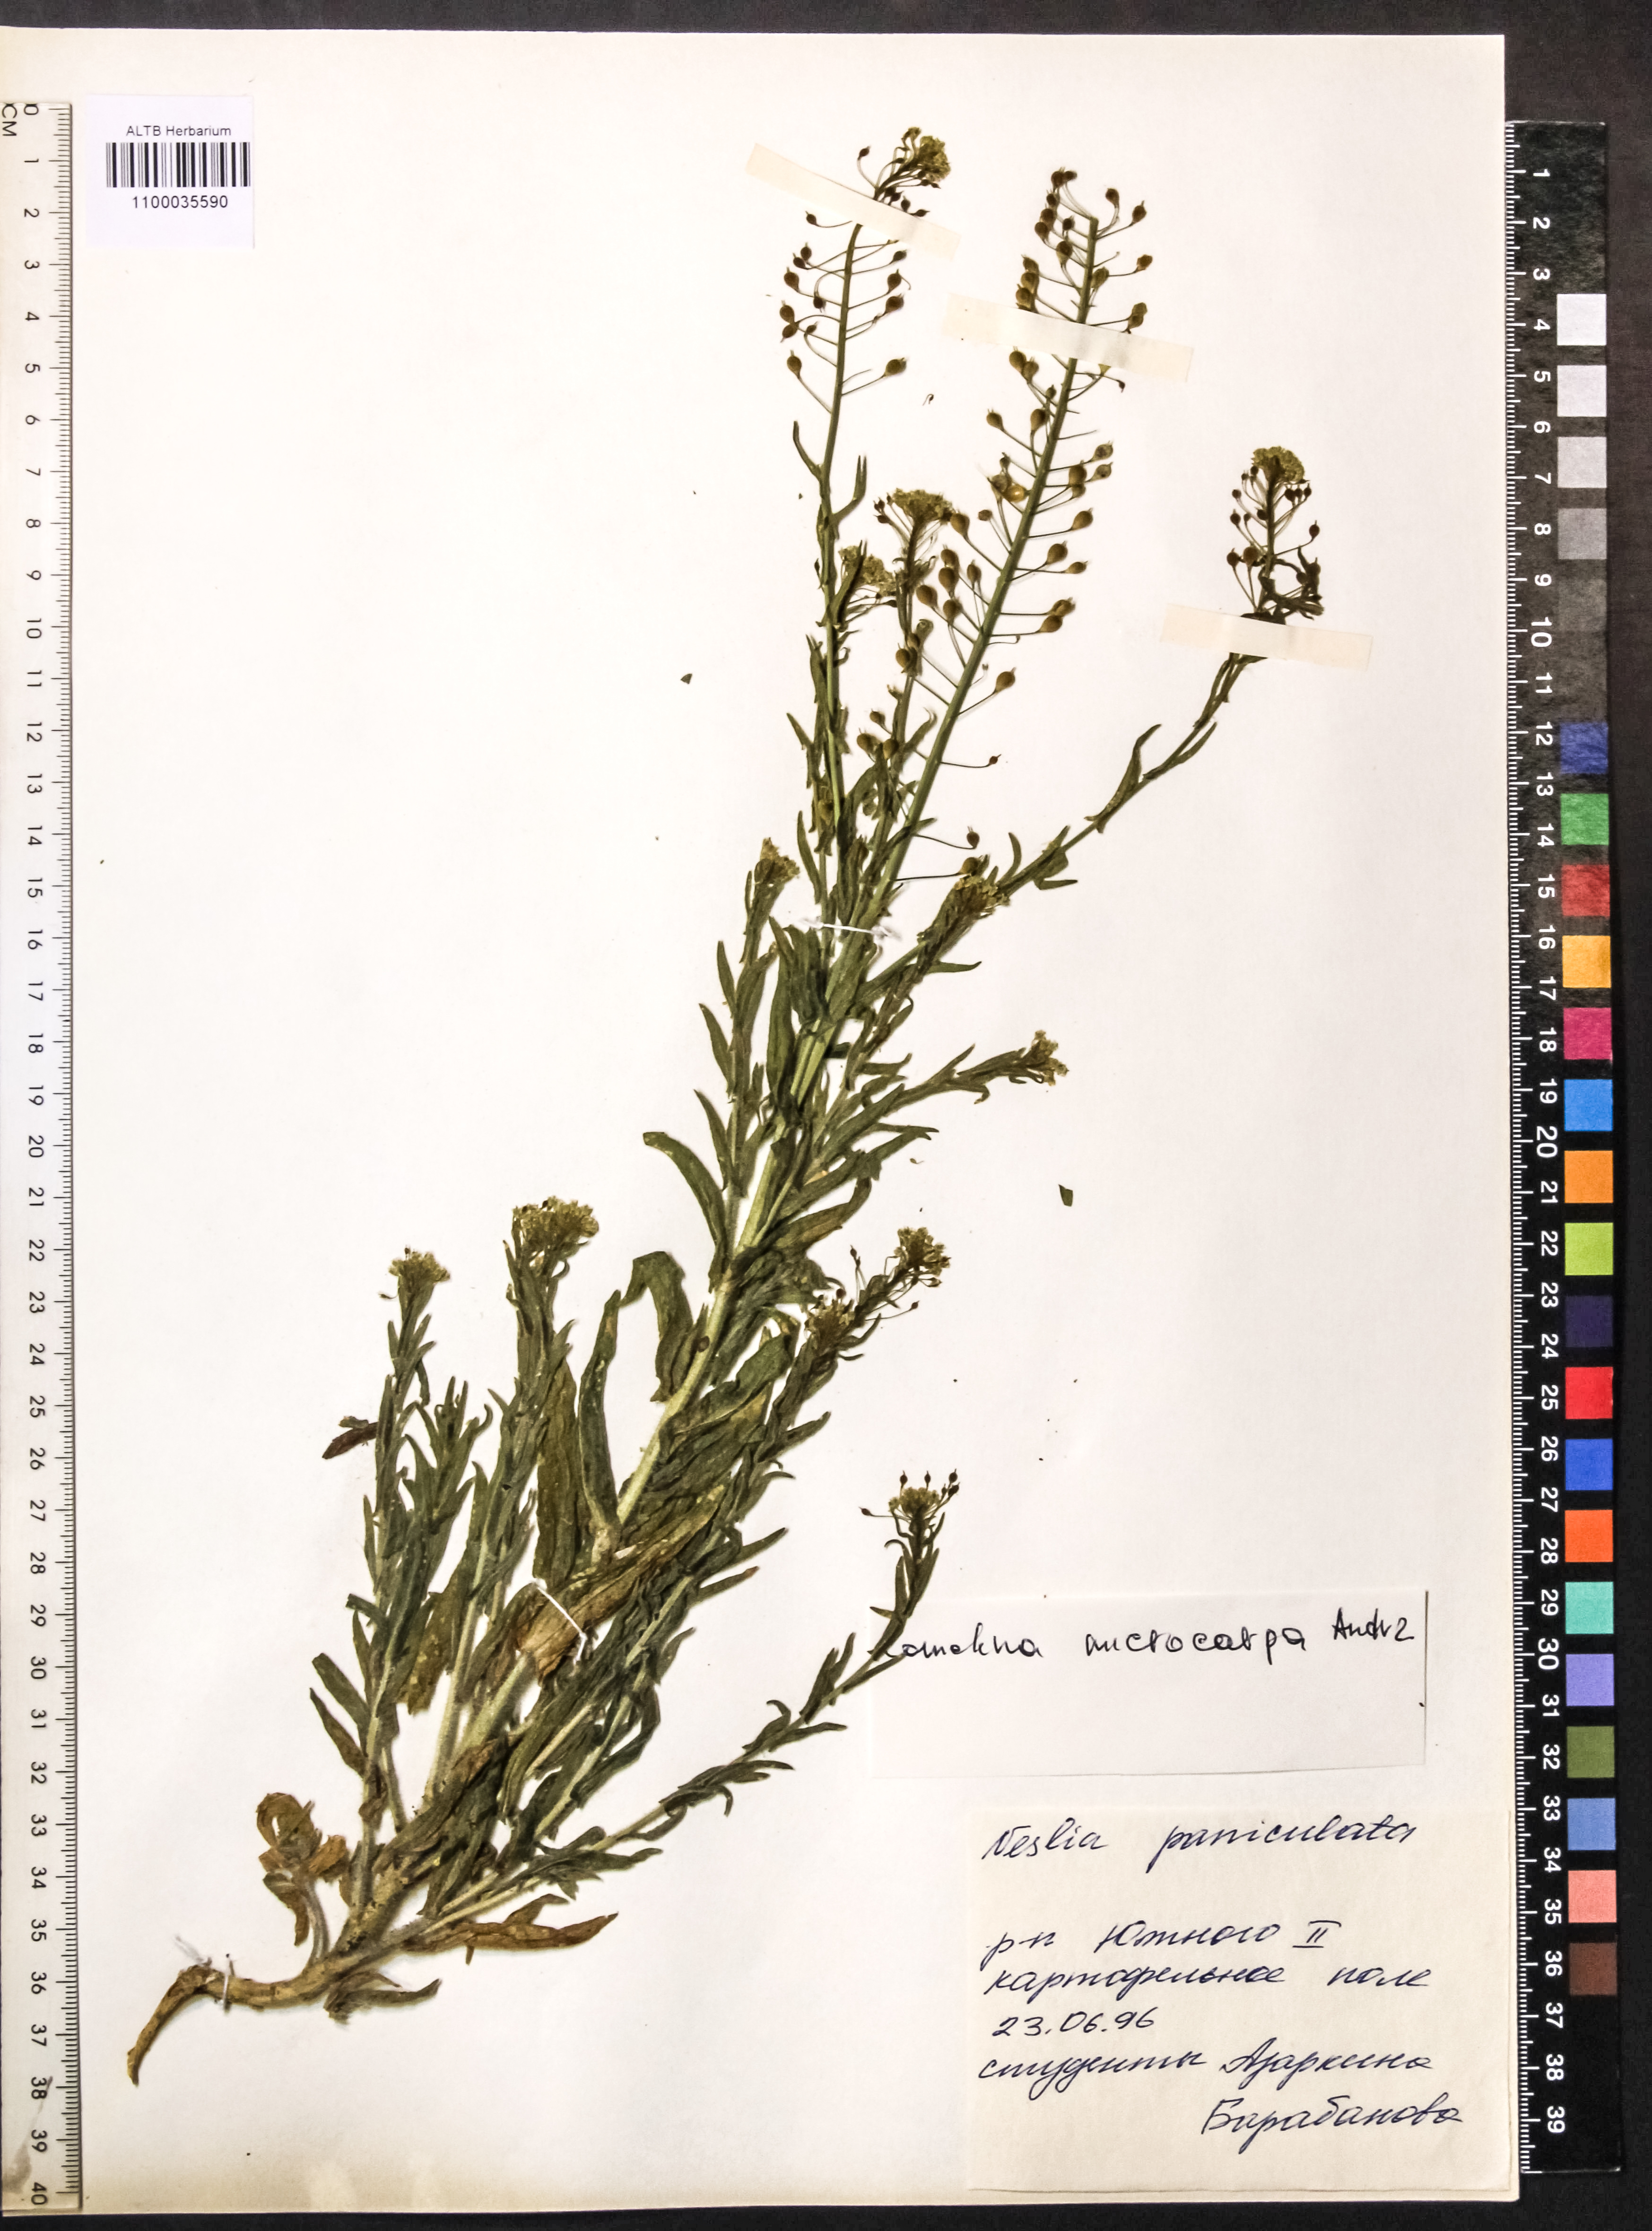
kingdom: Plantae
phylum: Tracheophyta
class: Magnoliopsida
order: Brassicales
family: Brassicaceae
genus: Camelina
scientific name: Camelina microcarpa
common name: Lesser gold-of-pleasure
